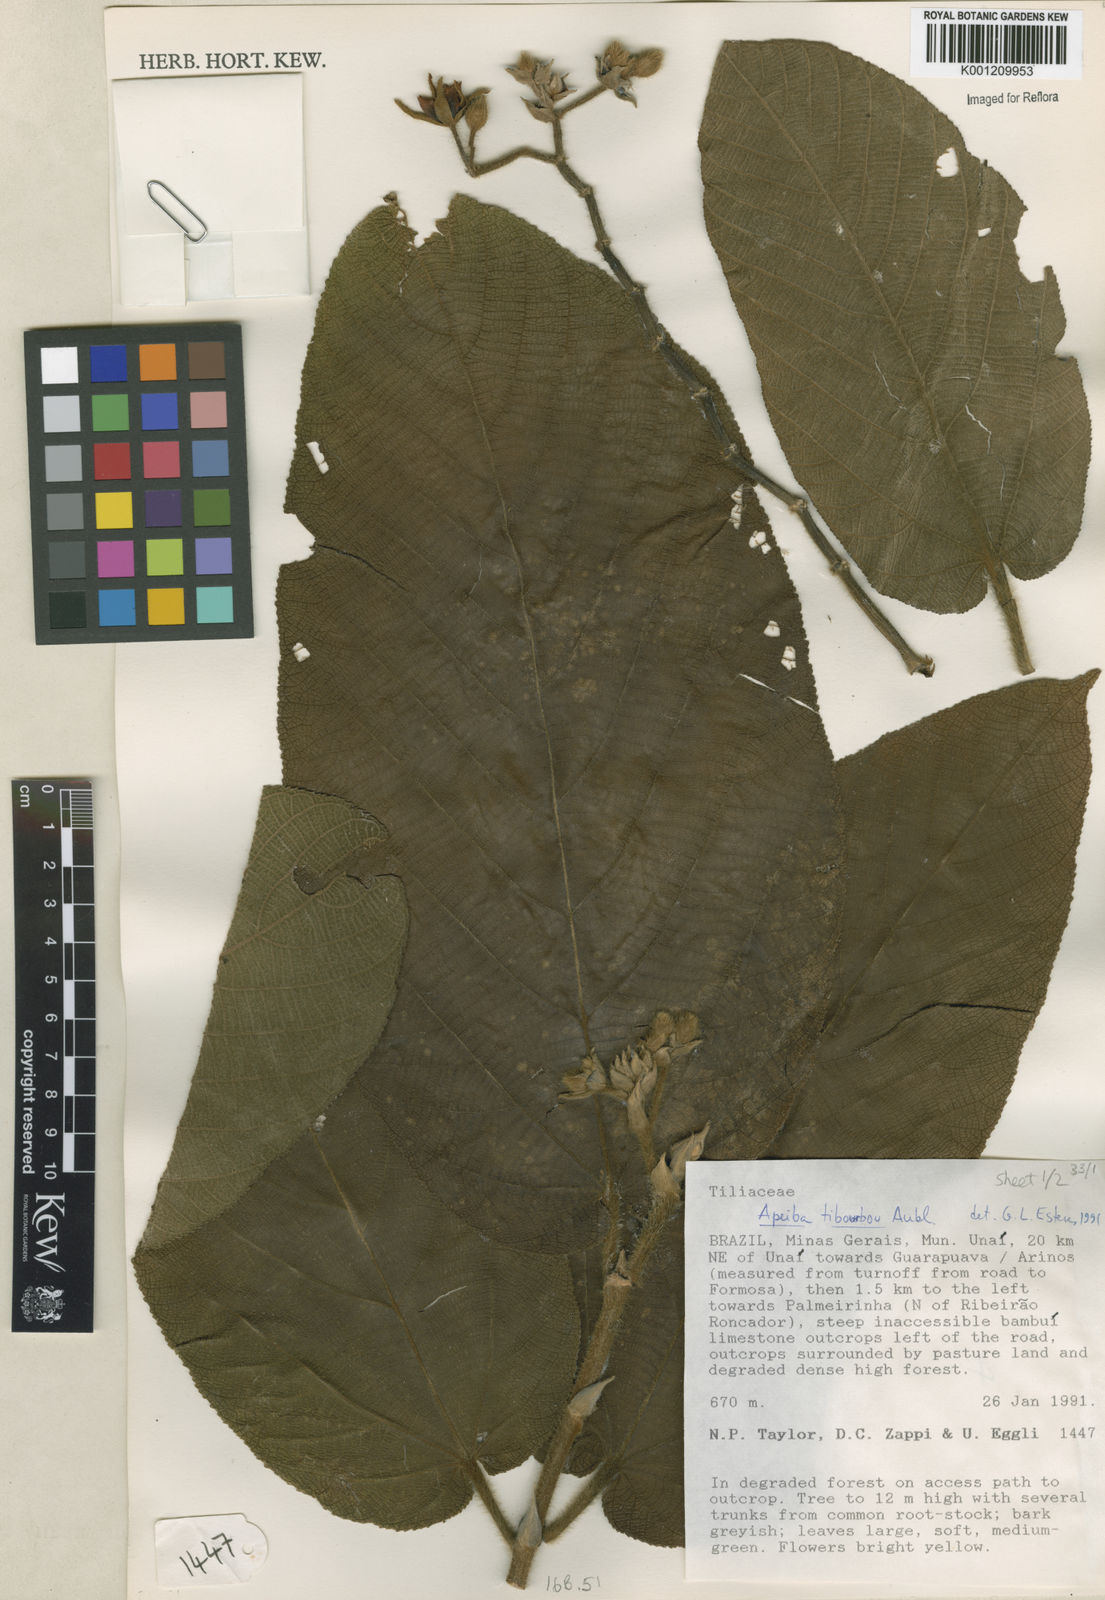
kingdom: Plantae
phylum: Tracheophyta
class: Magnoliopsida
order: Malvales
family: Malvaceae
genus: Apeiba
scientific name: Apeiba tibourbou
